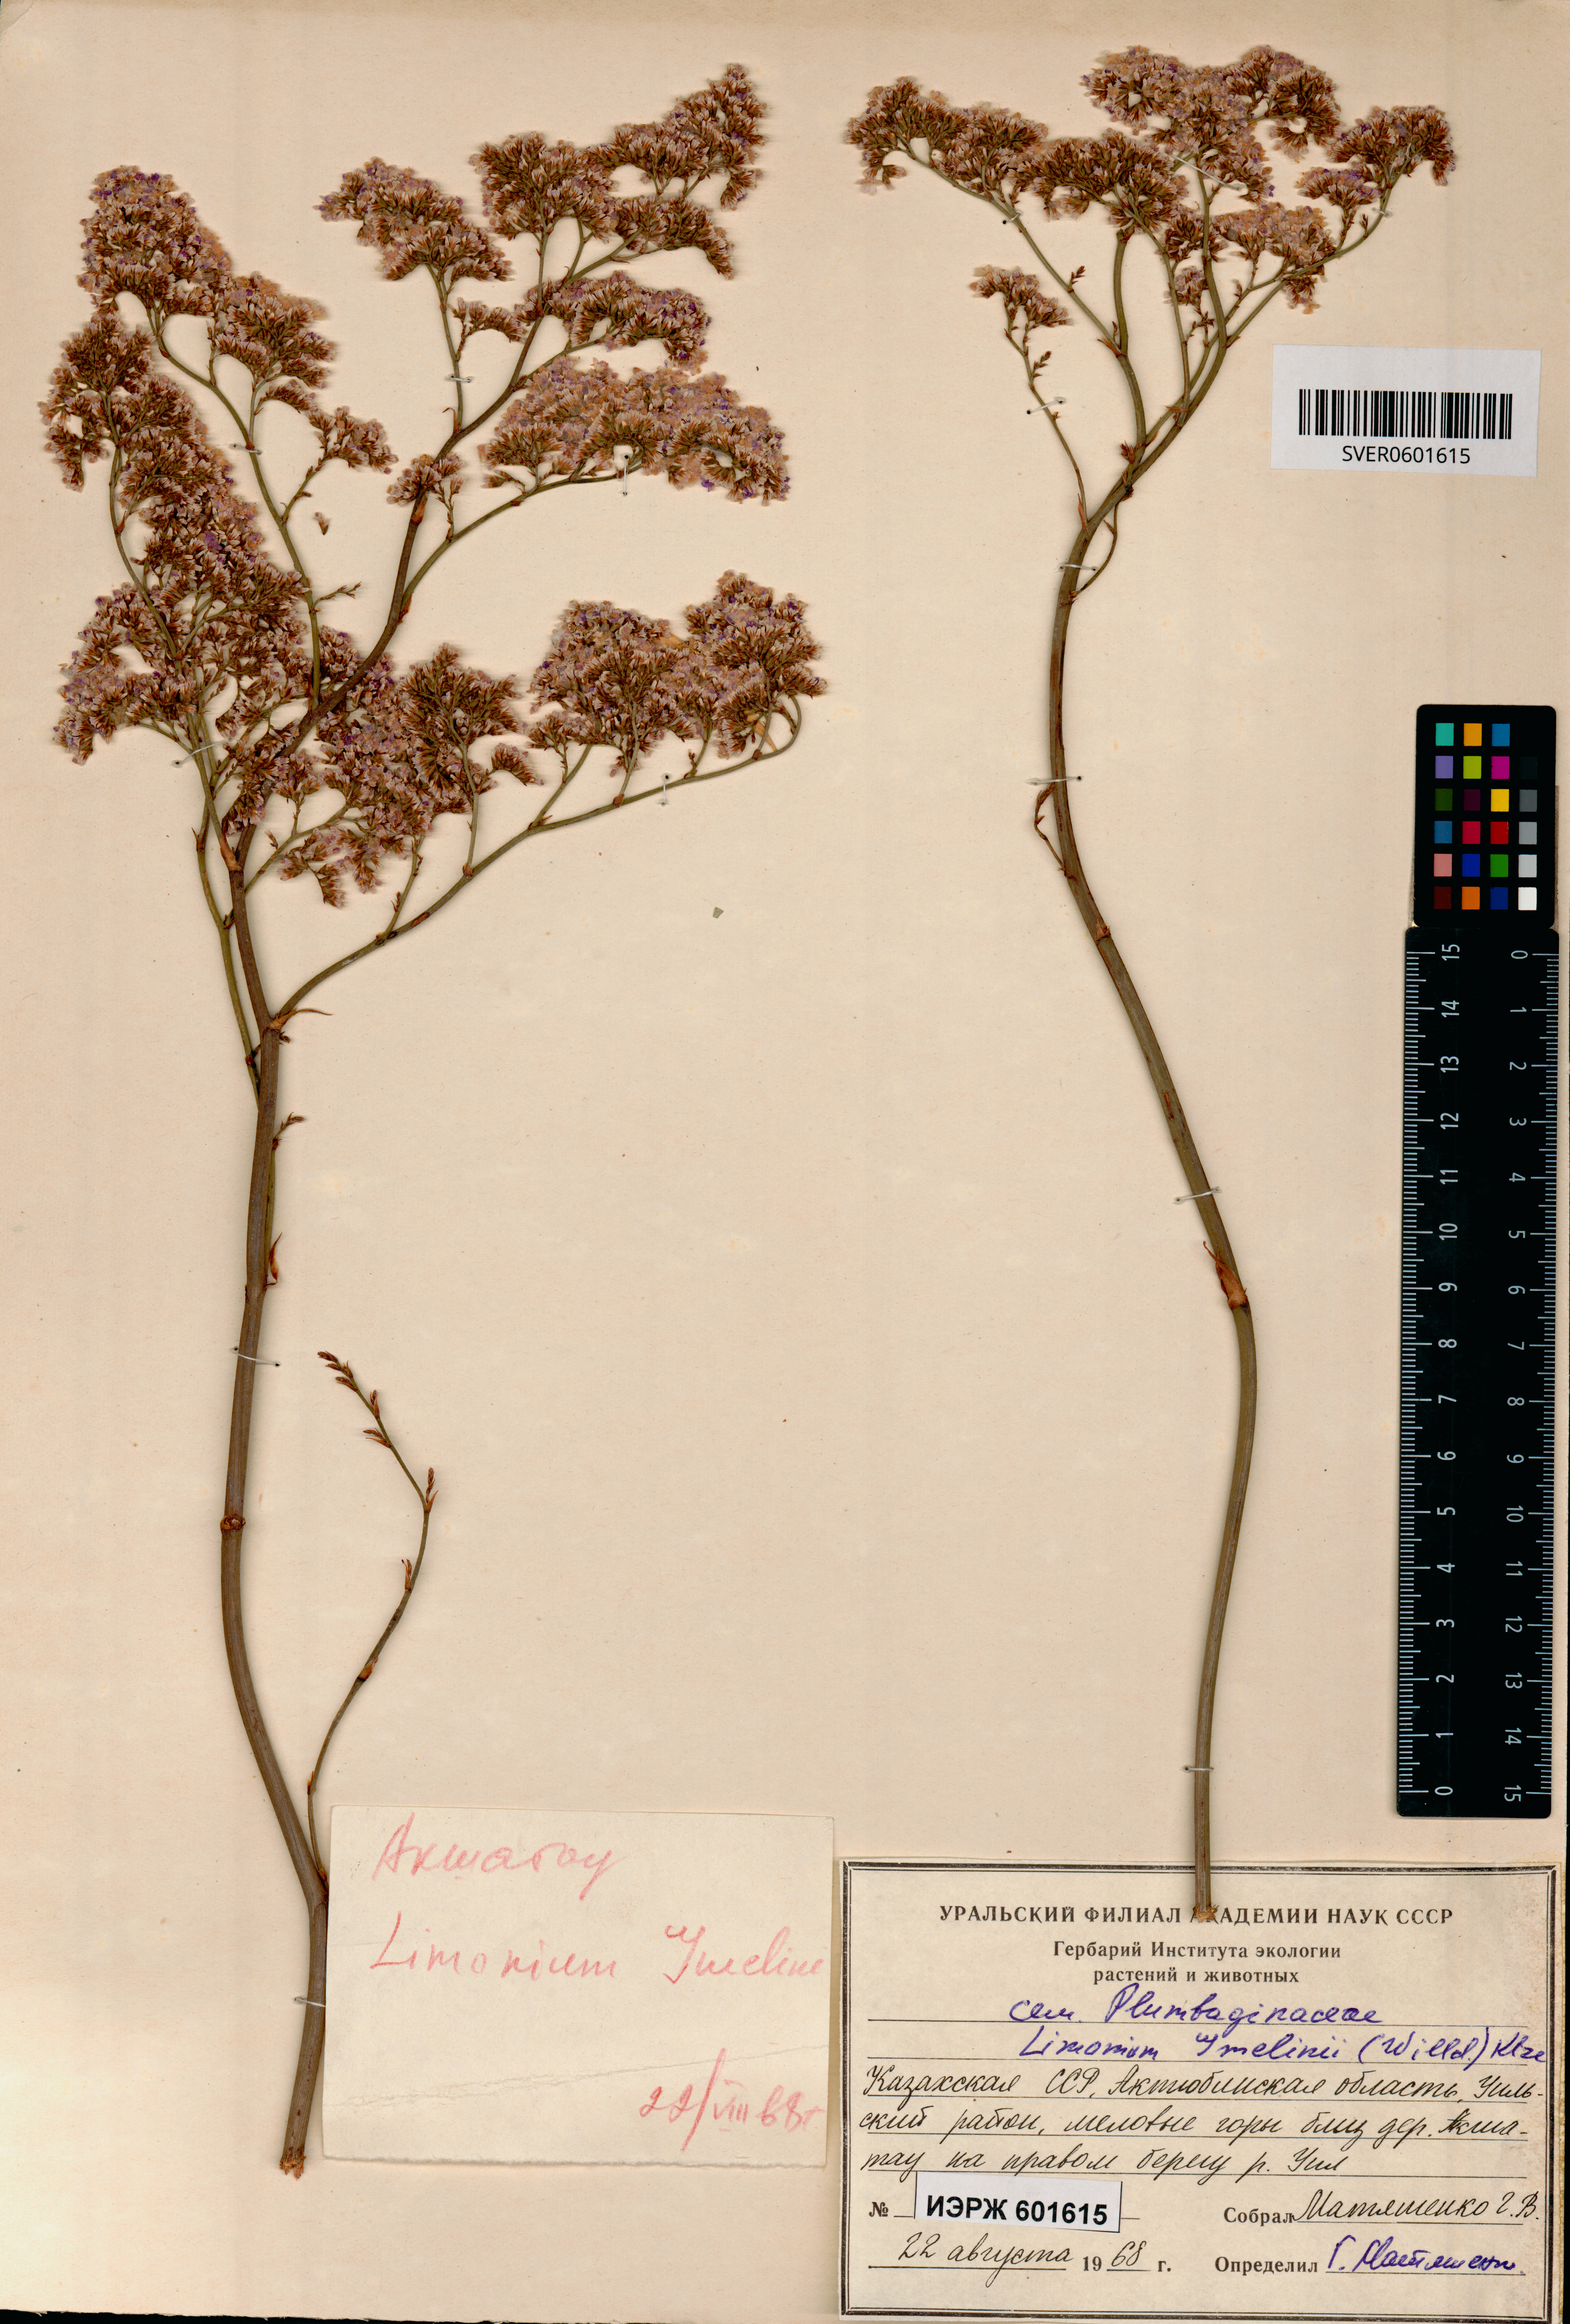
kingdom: Plantae
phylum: Tracheophyta
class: Magnoliopsida
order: Caryophyllales
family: Plumbaginaceae
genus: Limonium
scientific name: Limonium gmelini
